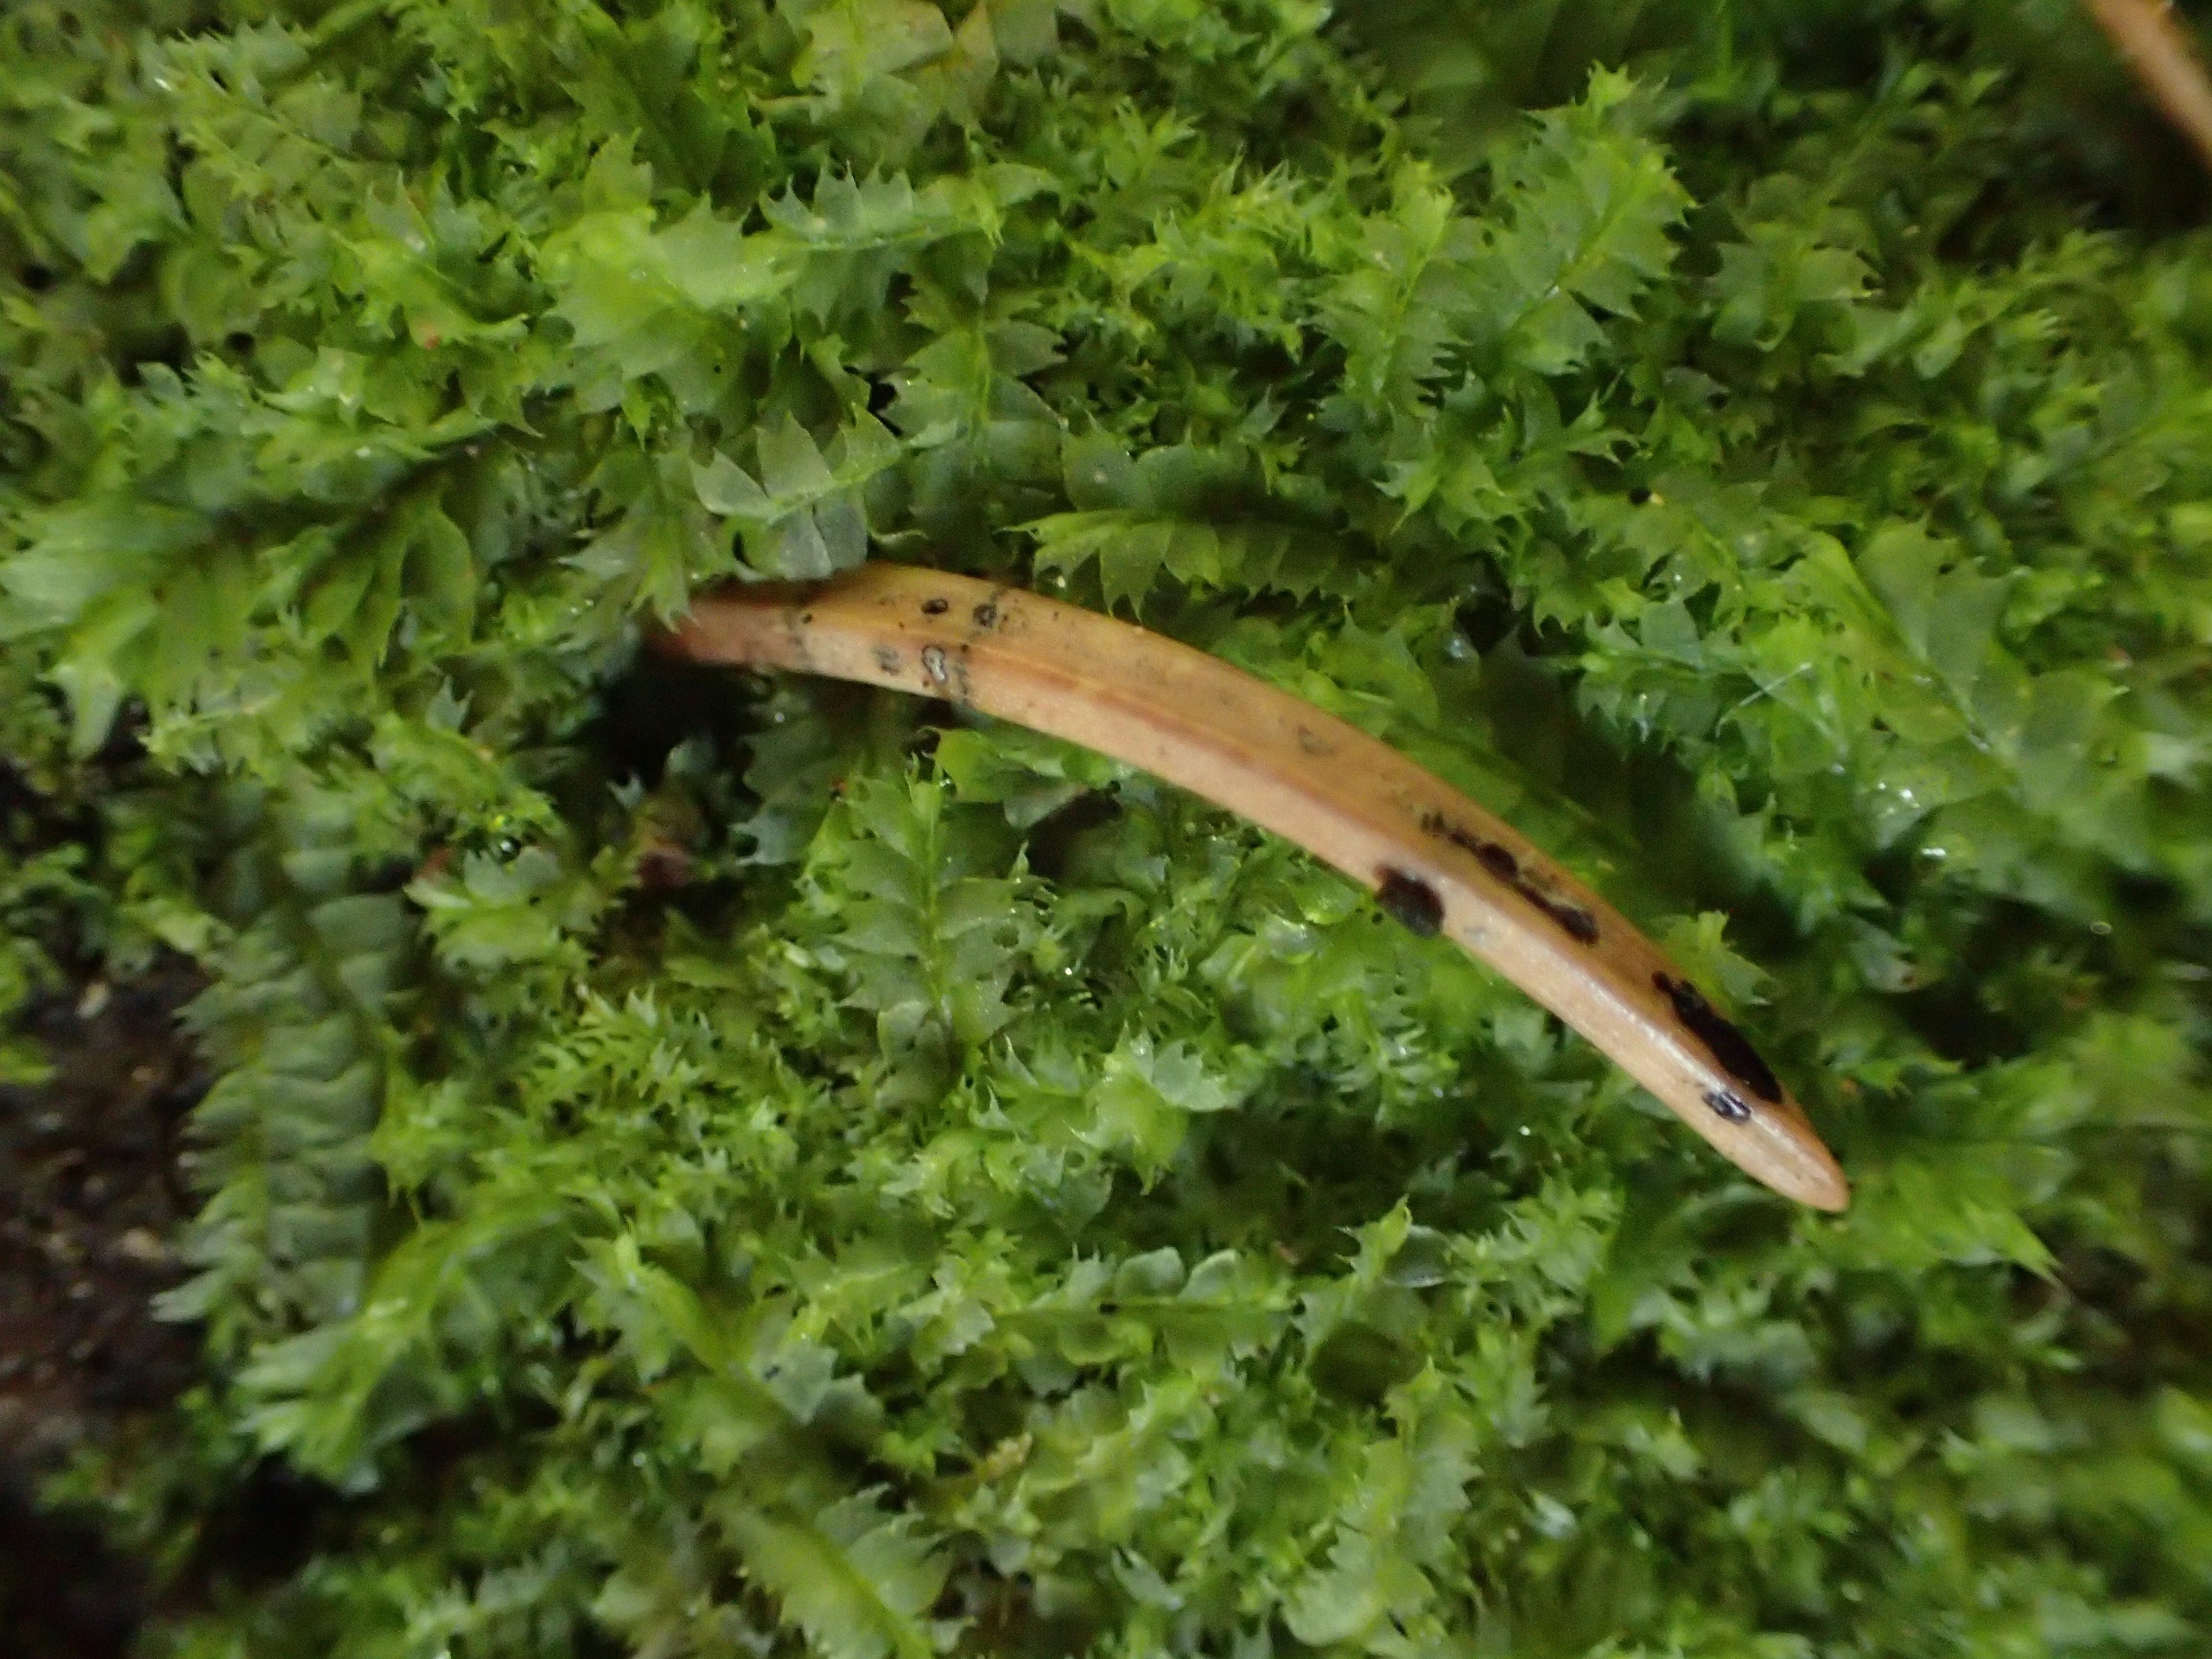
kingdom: Plantae
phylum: Marchantiophyta
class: Jungermanniopsida
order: Jungermanniales
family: Lophocoleaceae
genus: Lophocolea
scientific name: Lophocolea bidentata
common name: Sylspidset kamsvøb
